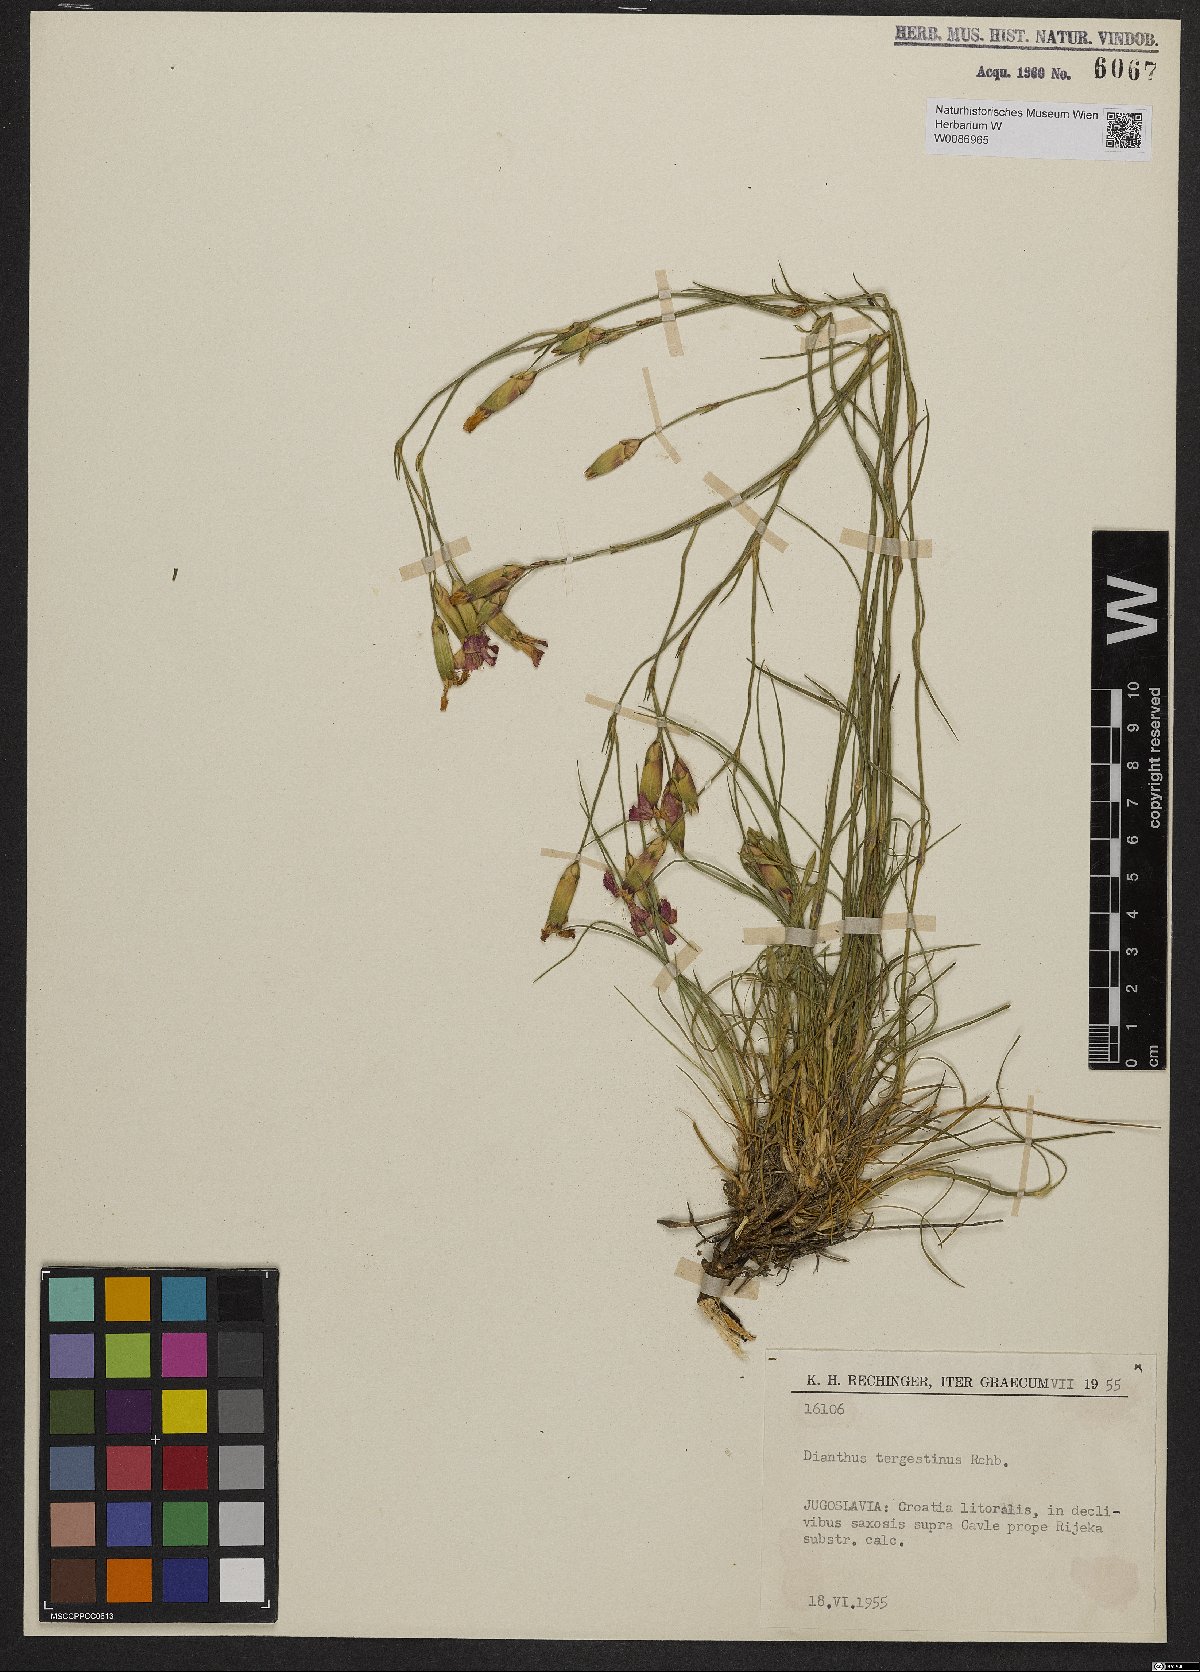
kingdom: Plantae
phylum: Tracheophyta
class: Magnoliopsida
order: Caryophyllales
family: Caryophyllaceae
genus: Dianthus
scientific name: Dianthus sylvestris
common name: Wood pink
